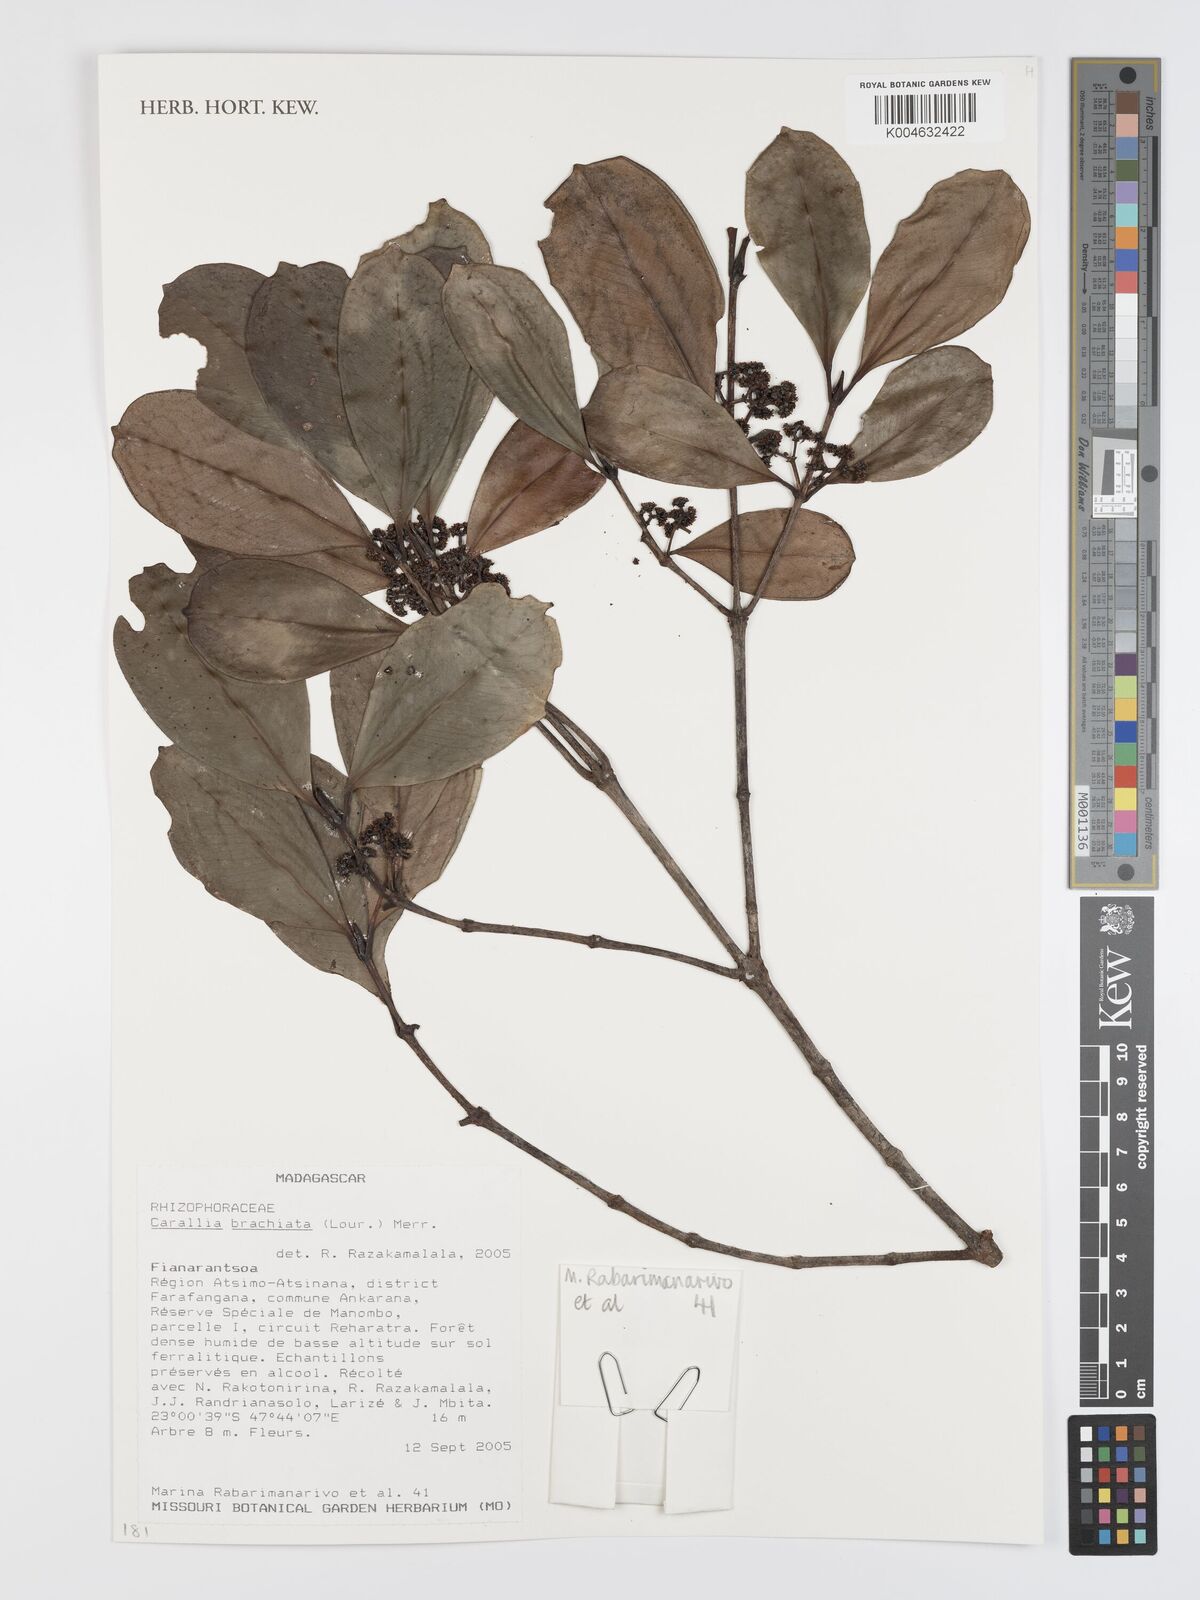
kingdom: Plantae
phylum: Tracheophyta
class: Magnoliopsida
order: Malpighiales
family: Rhizophoraceae
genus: Carallia
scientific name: Carallia brachiata
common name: Carallawood
